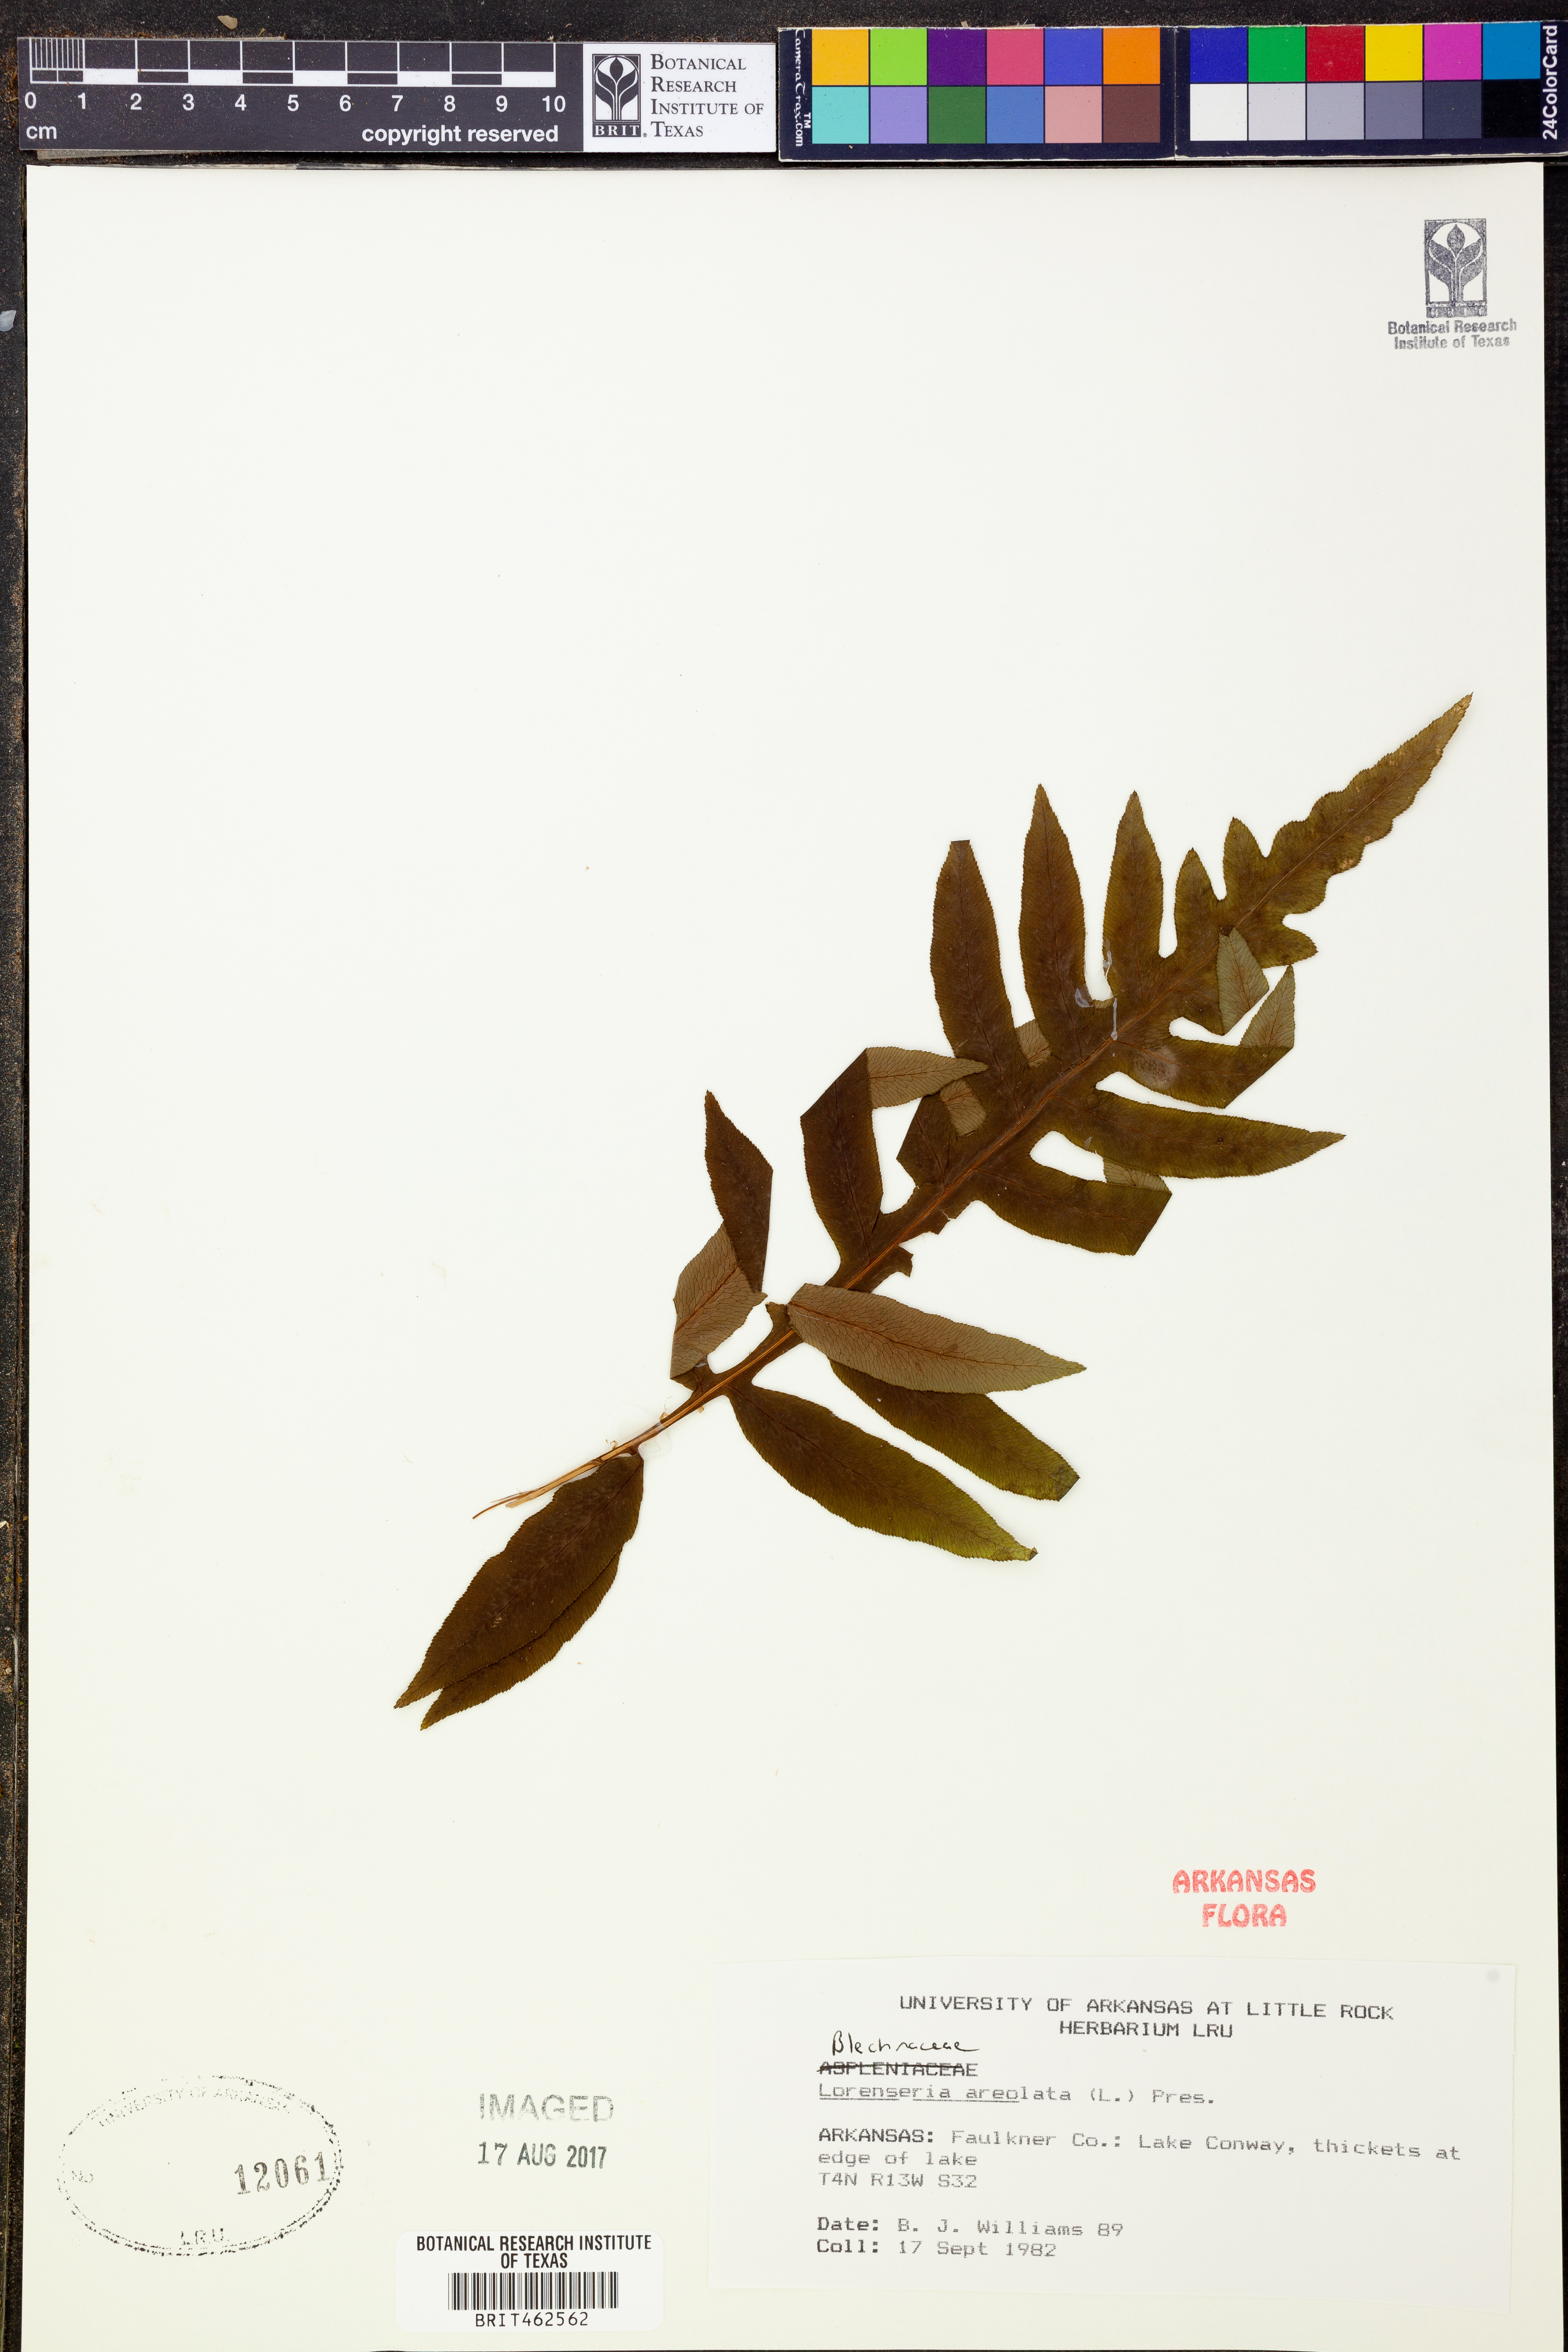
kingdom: Plantae
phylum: Tracheophyta
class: Polypodiopsida
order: Polypodiales
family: Blechnaceae
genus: Lorinseria
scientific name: Lorinseria areolata
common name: Dwarf chain fern
